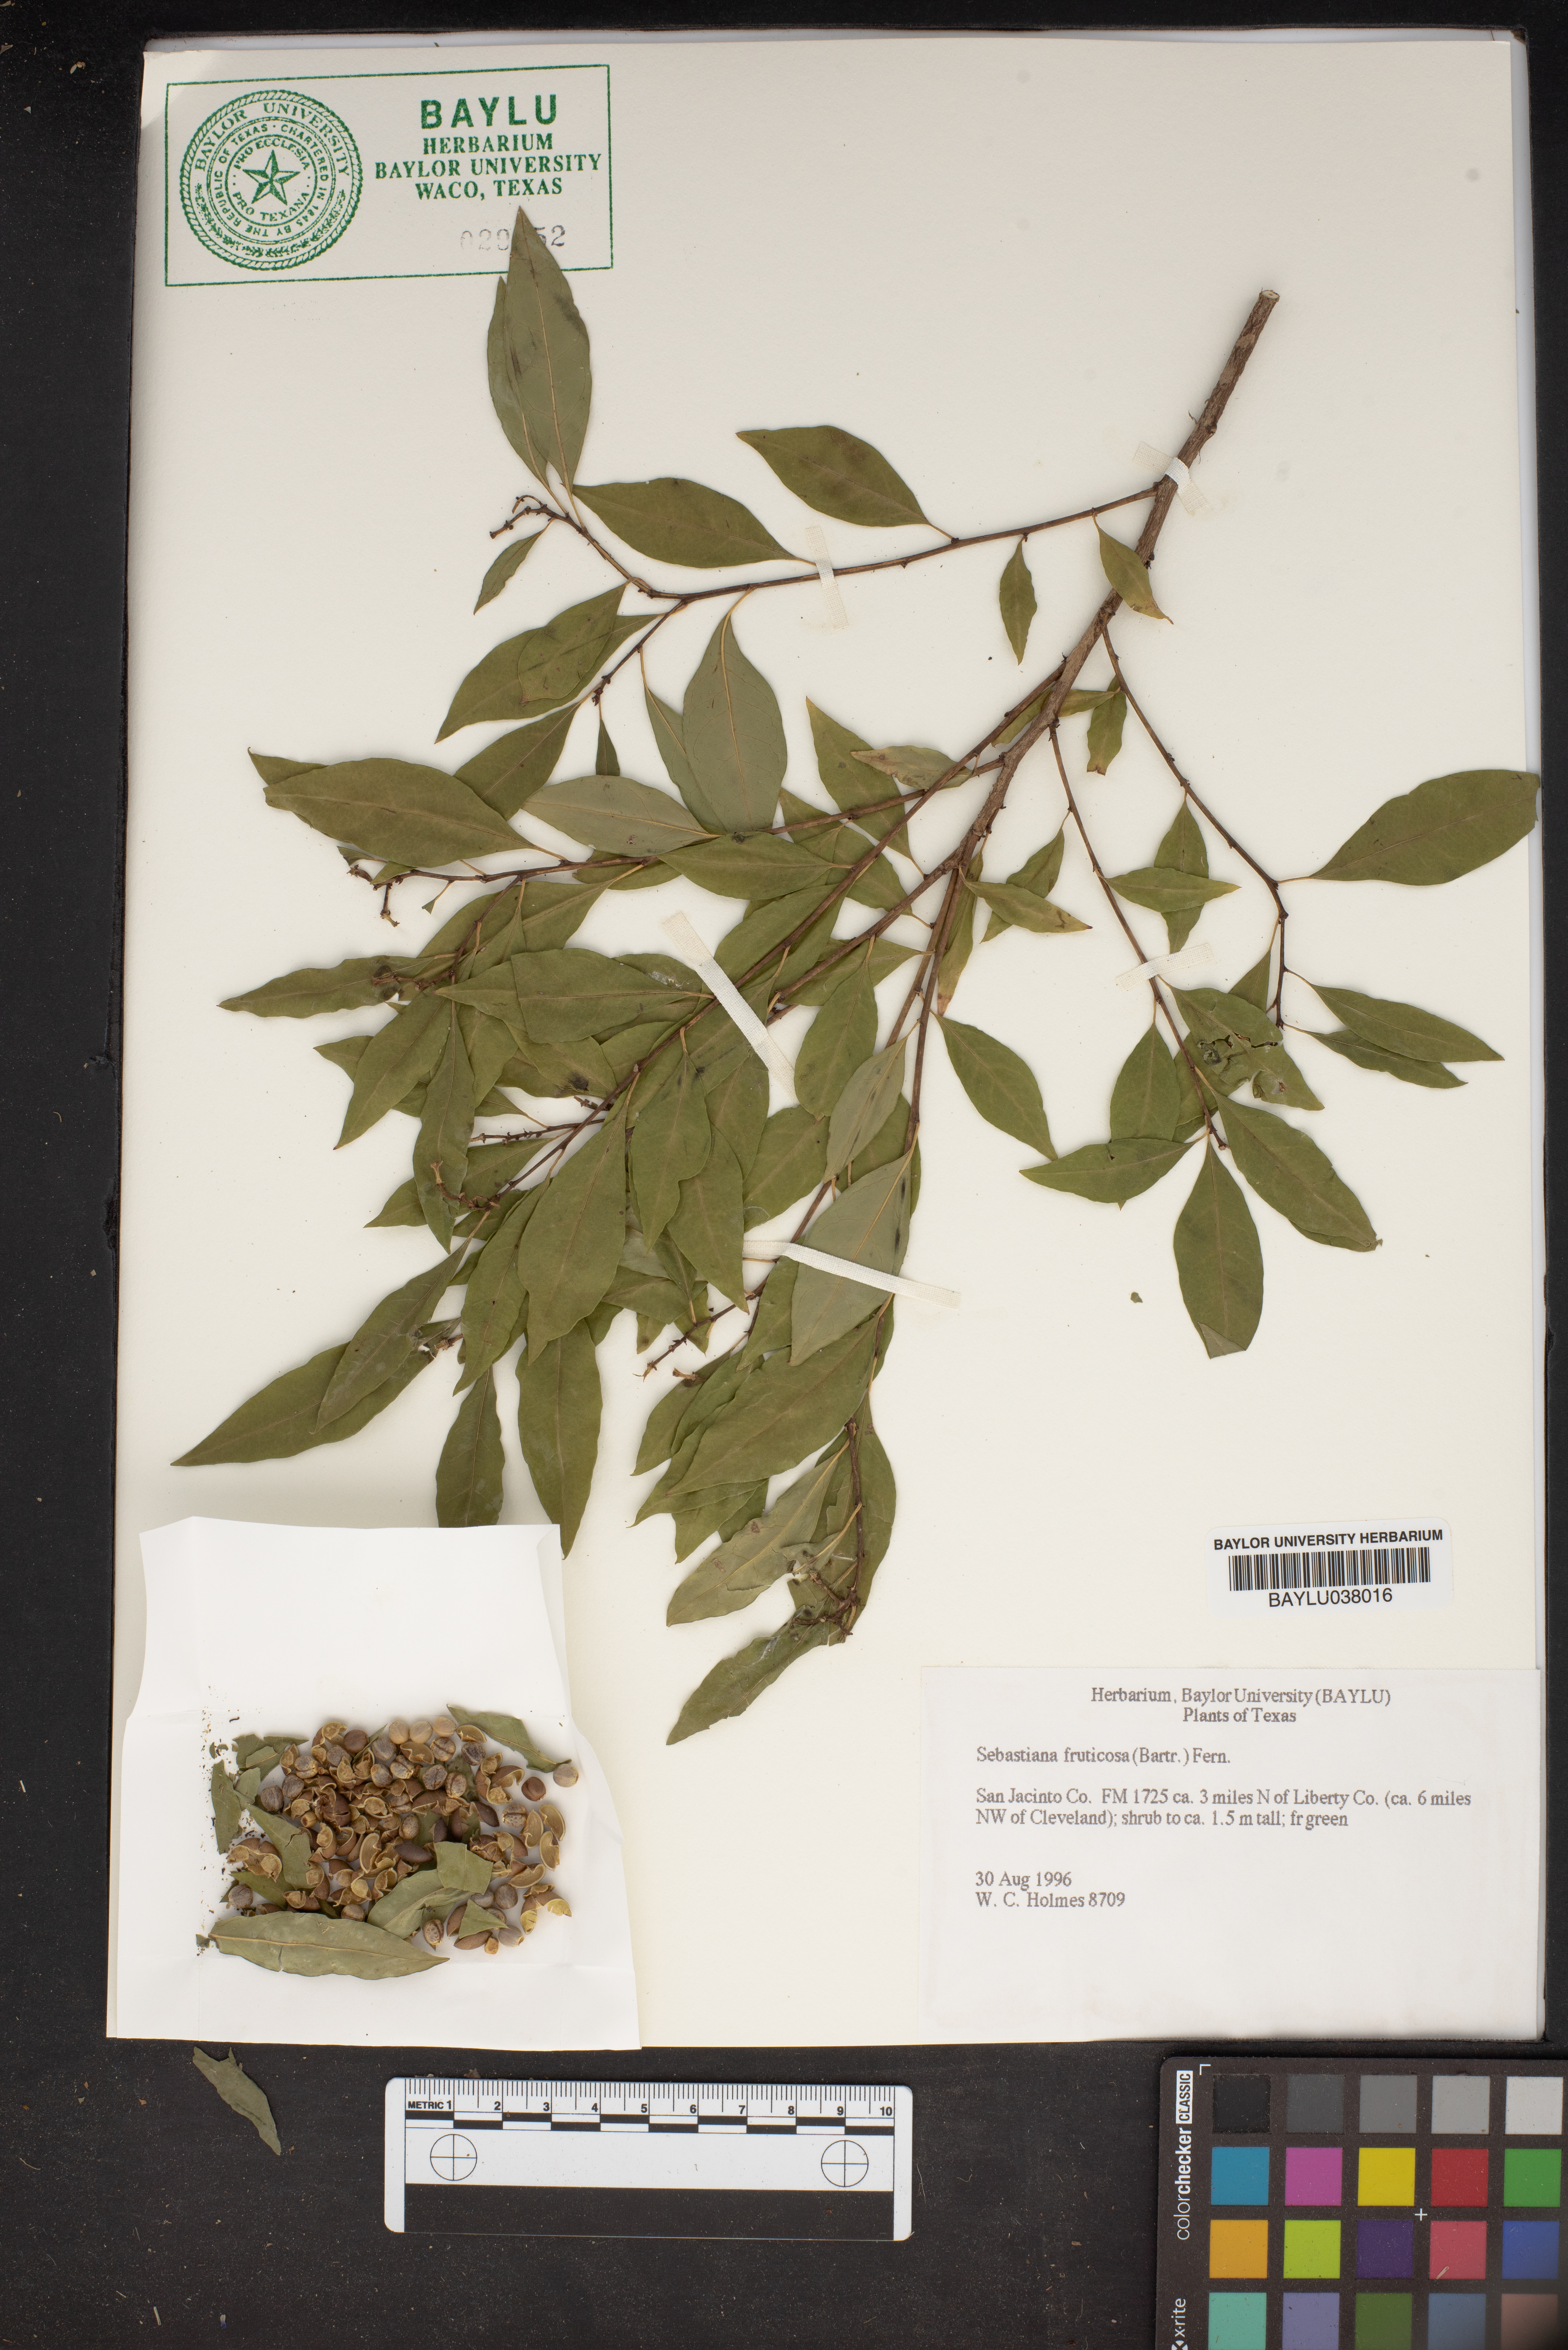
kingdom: Plantae
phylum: Tracheophyta
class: Magnoliopsida
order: Malpighiales
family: Euphorbiaceae
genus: Ditrysinia
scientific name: Ditrysinia fruticosa
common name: Gulf sebastian-bush
